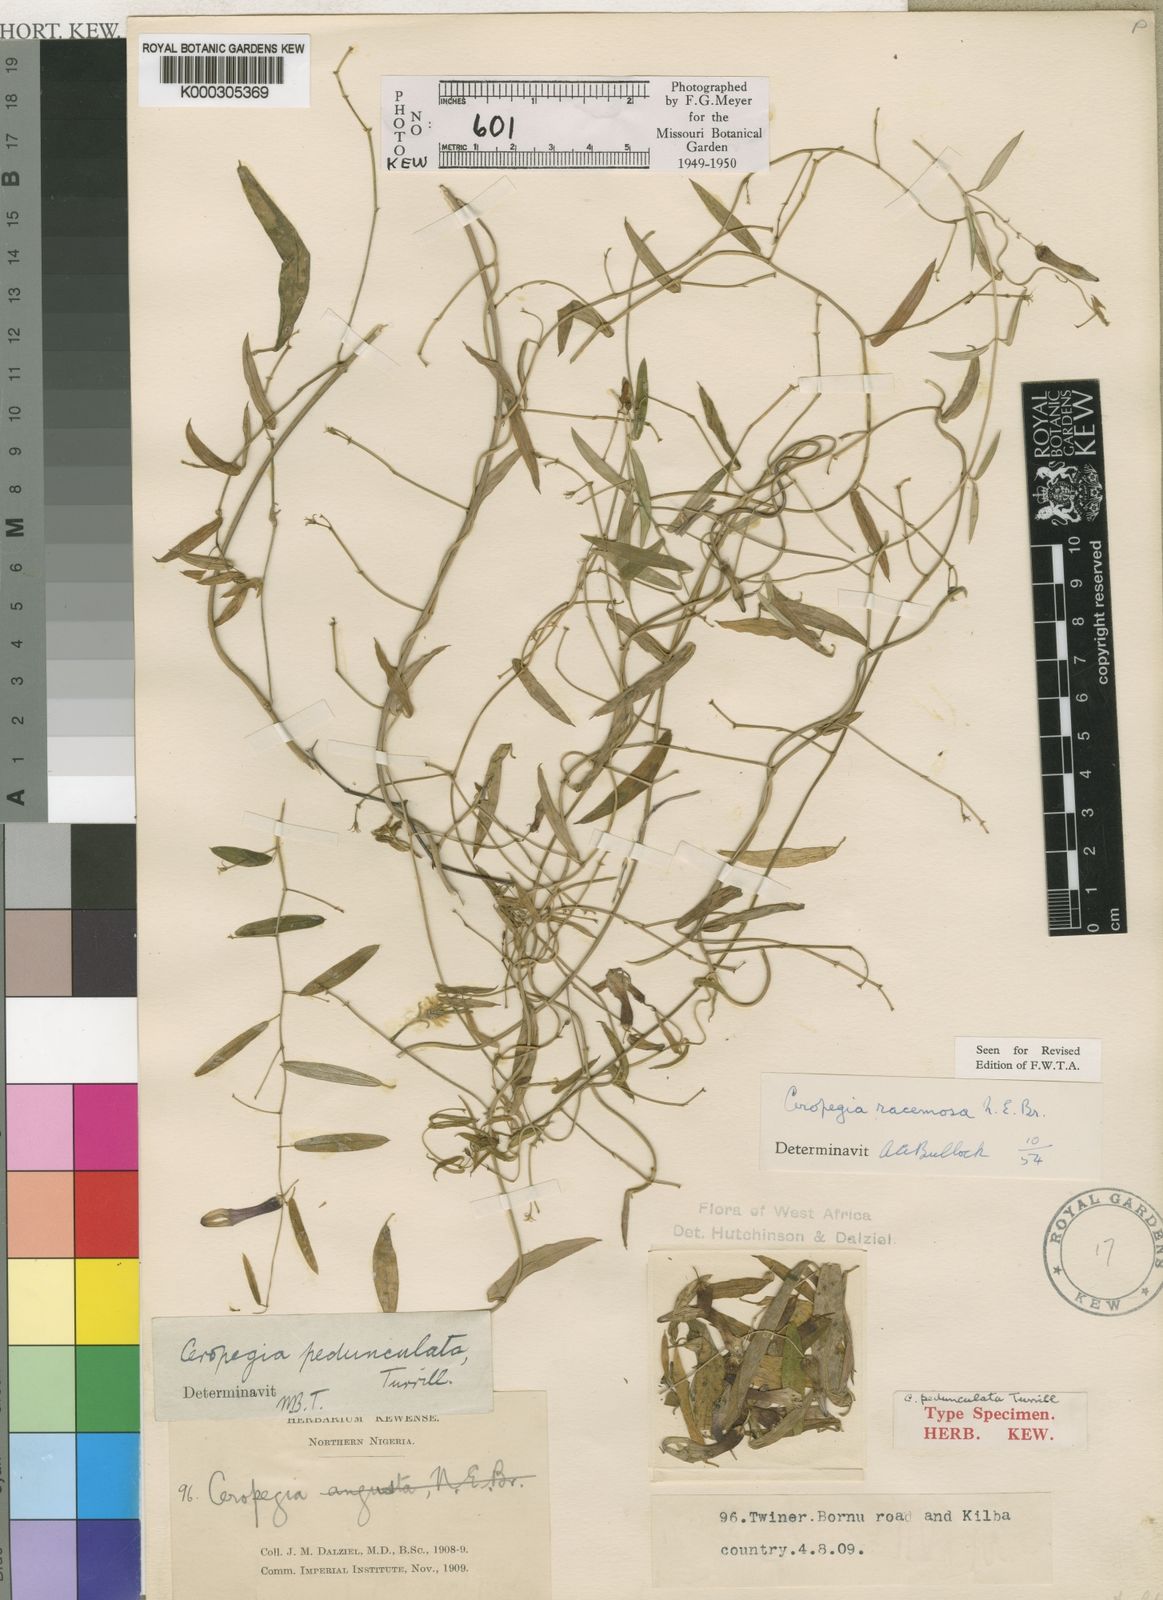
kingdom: Plantae
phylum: Tracheophyta
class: Magnoliopsida
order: Gentianales
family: Apocynaceae
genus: Ceropegia
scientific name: Ceropegia racemosa
